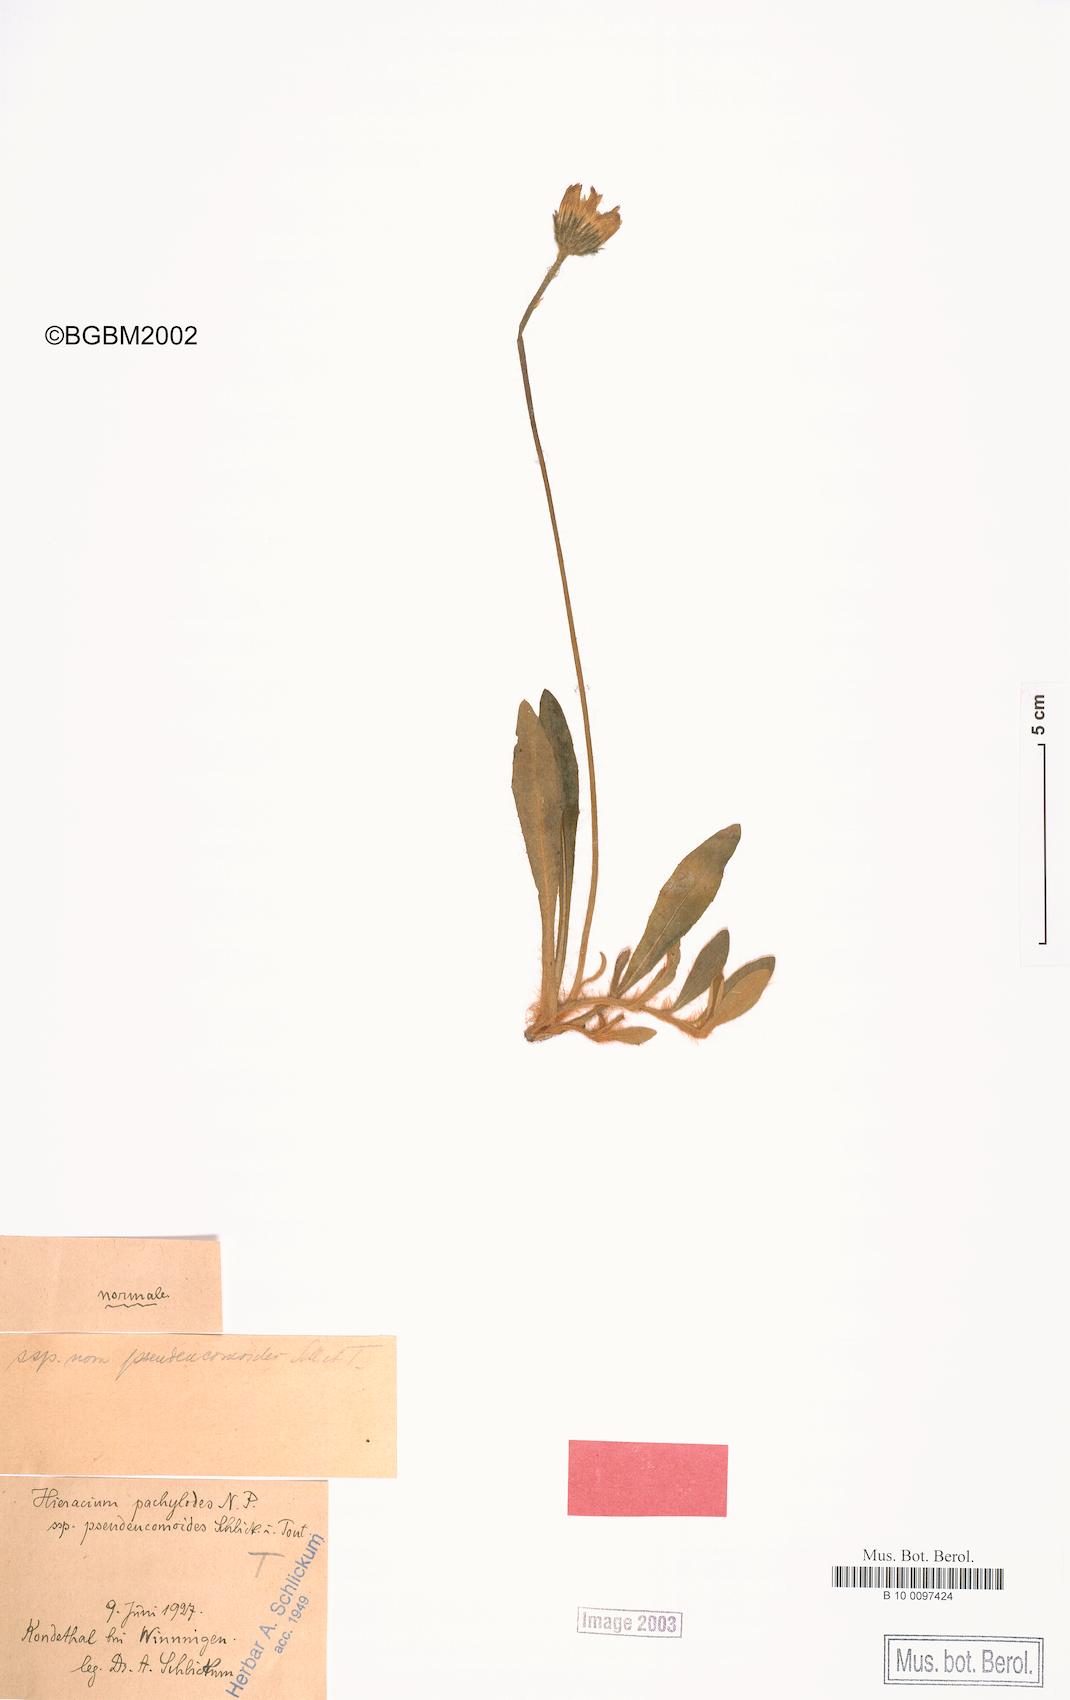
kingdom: Plantae
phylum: Tracheophyta
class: Magnoliopsida
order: Asterales
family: Asteraceae
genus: Pilosella
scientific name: Pilosella longisquama
